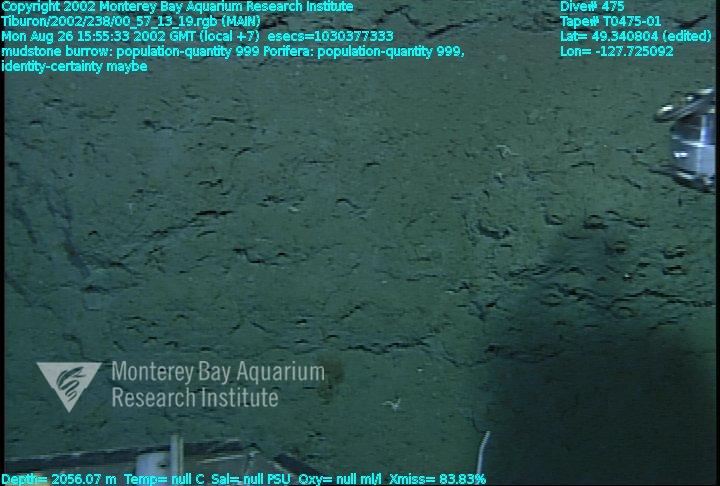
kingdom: Animalia
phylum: Porifera
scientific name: Porifera
